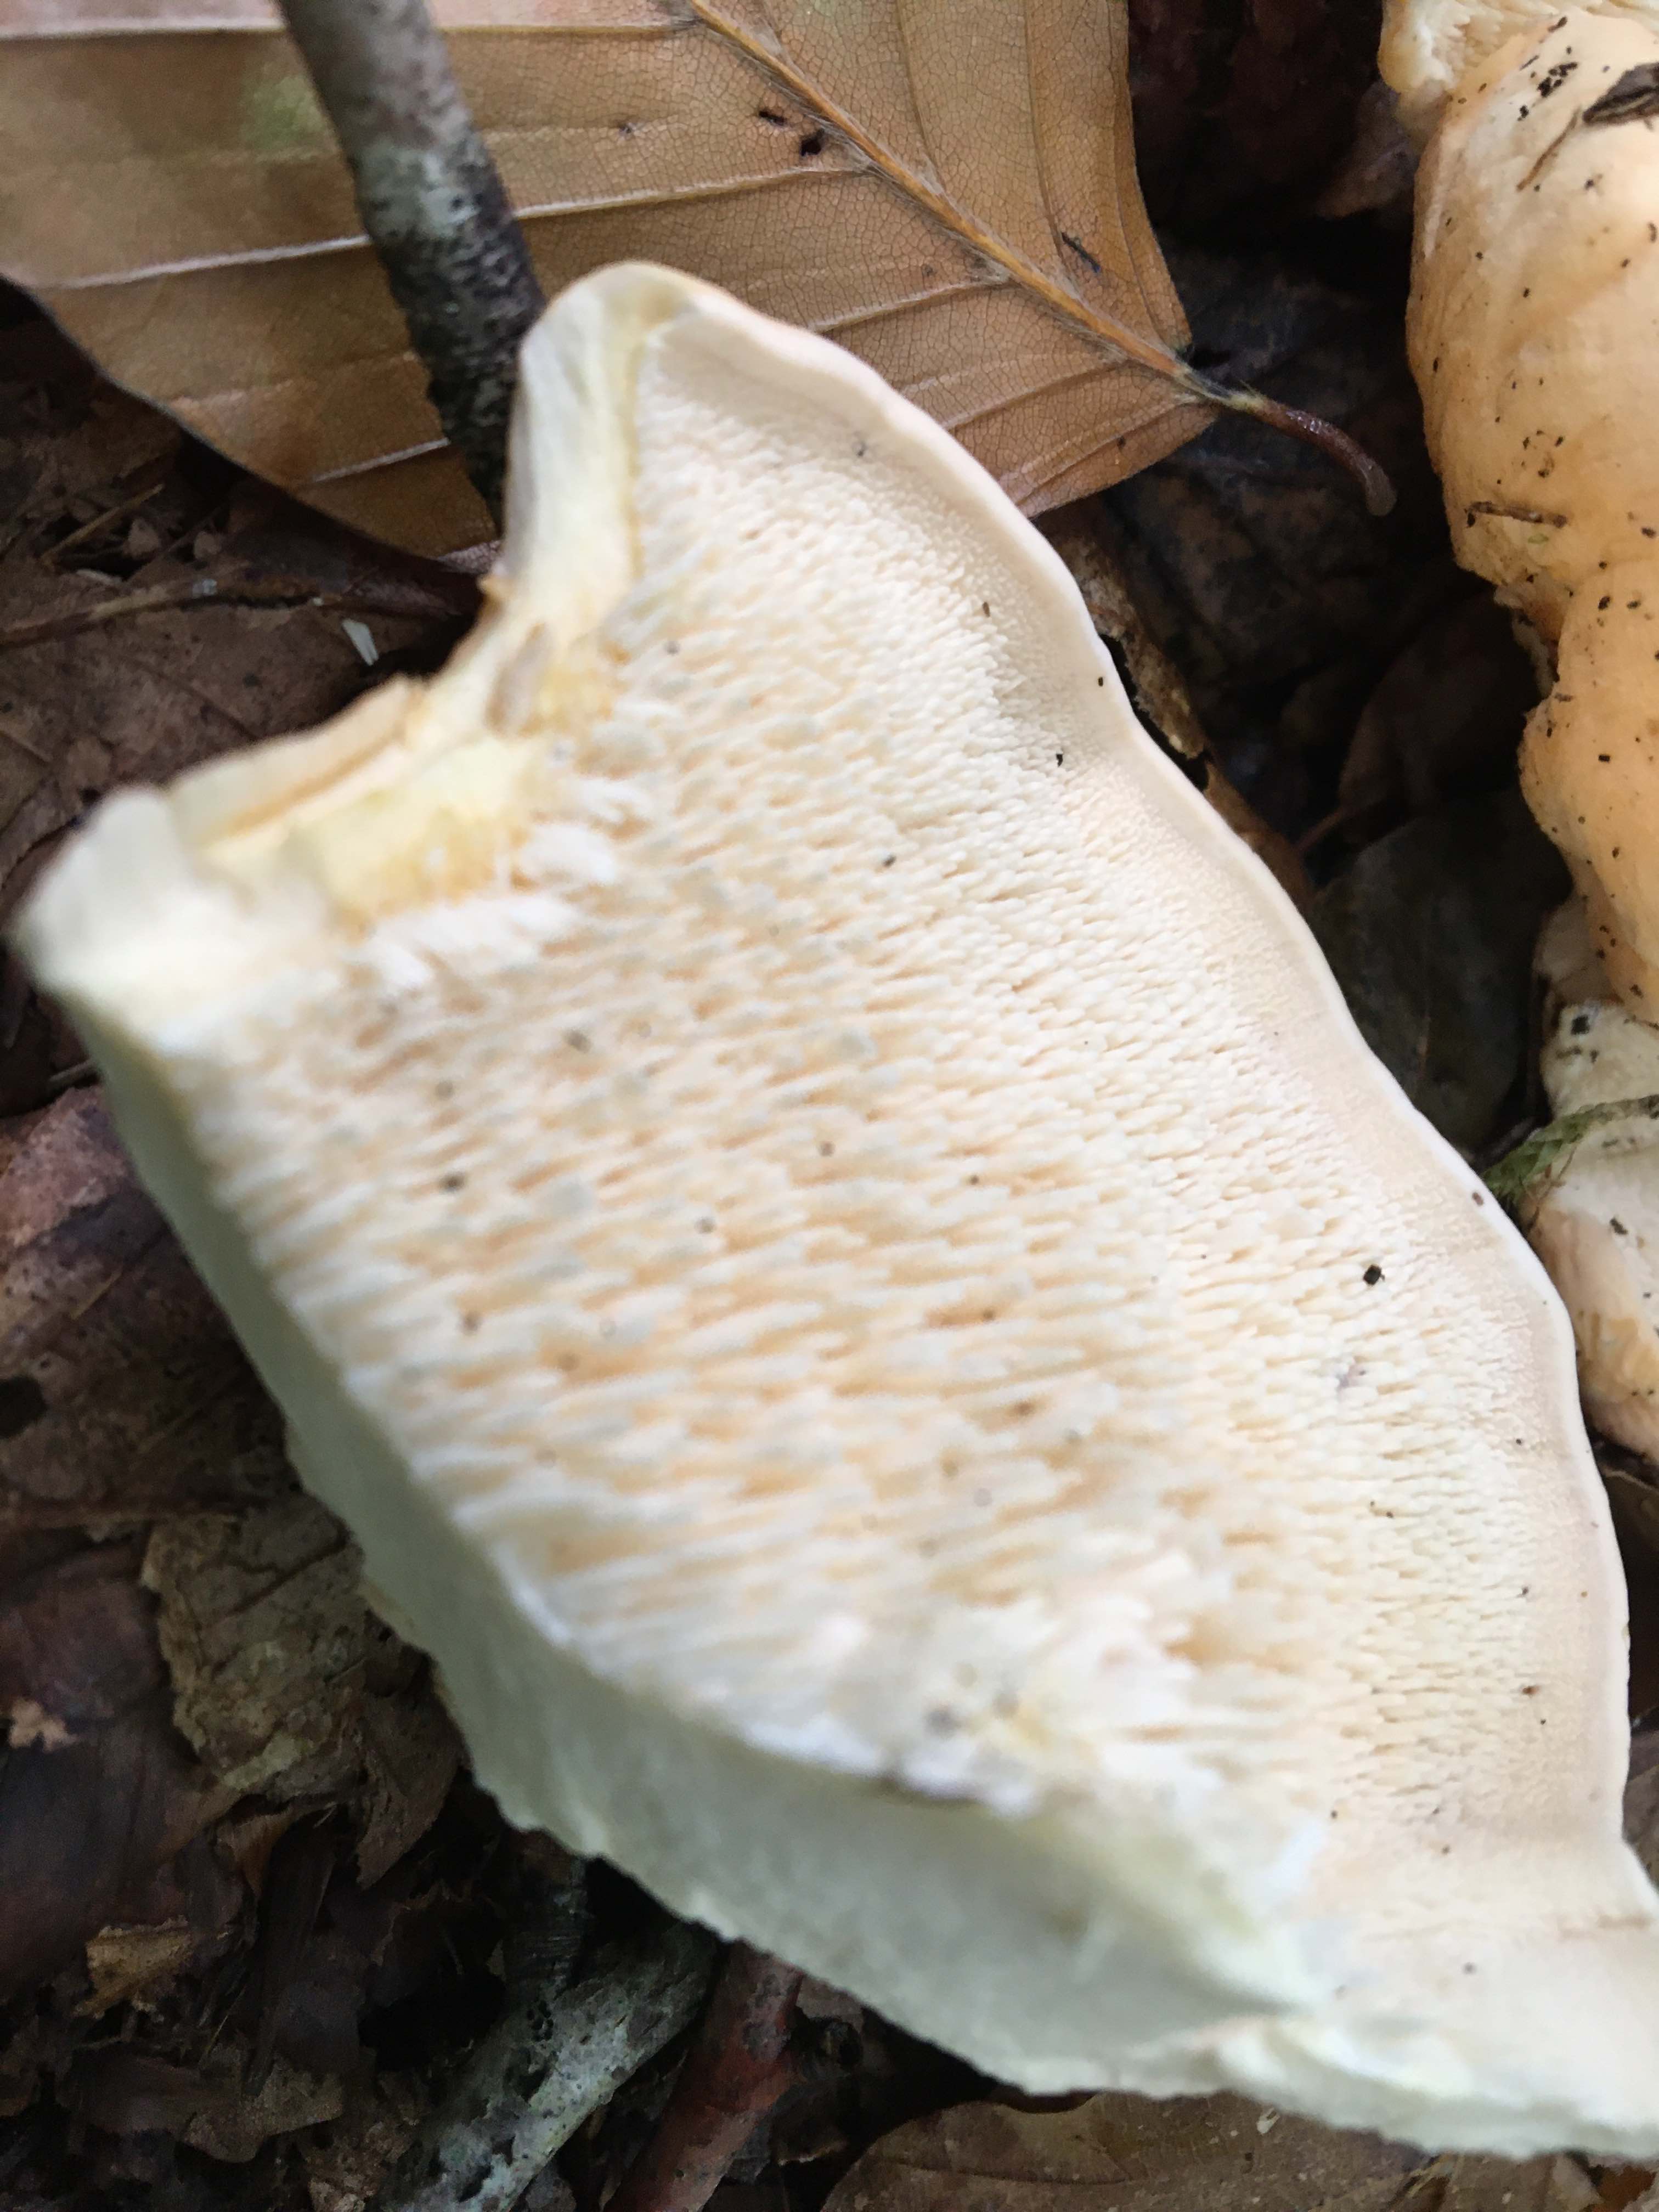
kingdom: Fungi
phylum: Basidiomycota
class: Agaricomycetes
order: Cantharellales
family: Hydnaceae
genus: Hydnum
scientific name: Hydnum repandum
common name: almindelig pigsvamp
